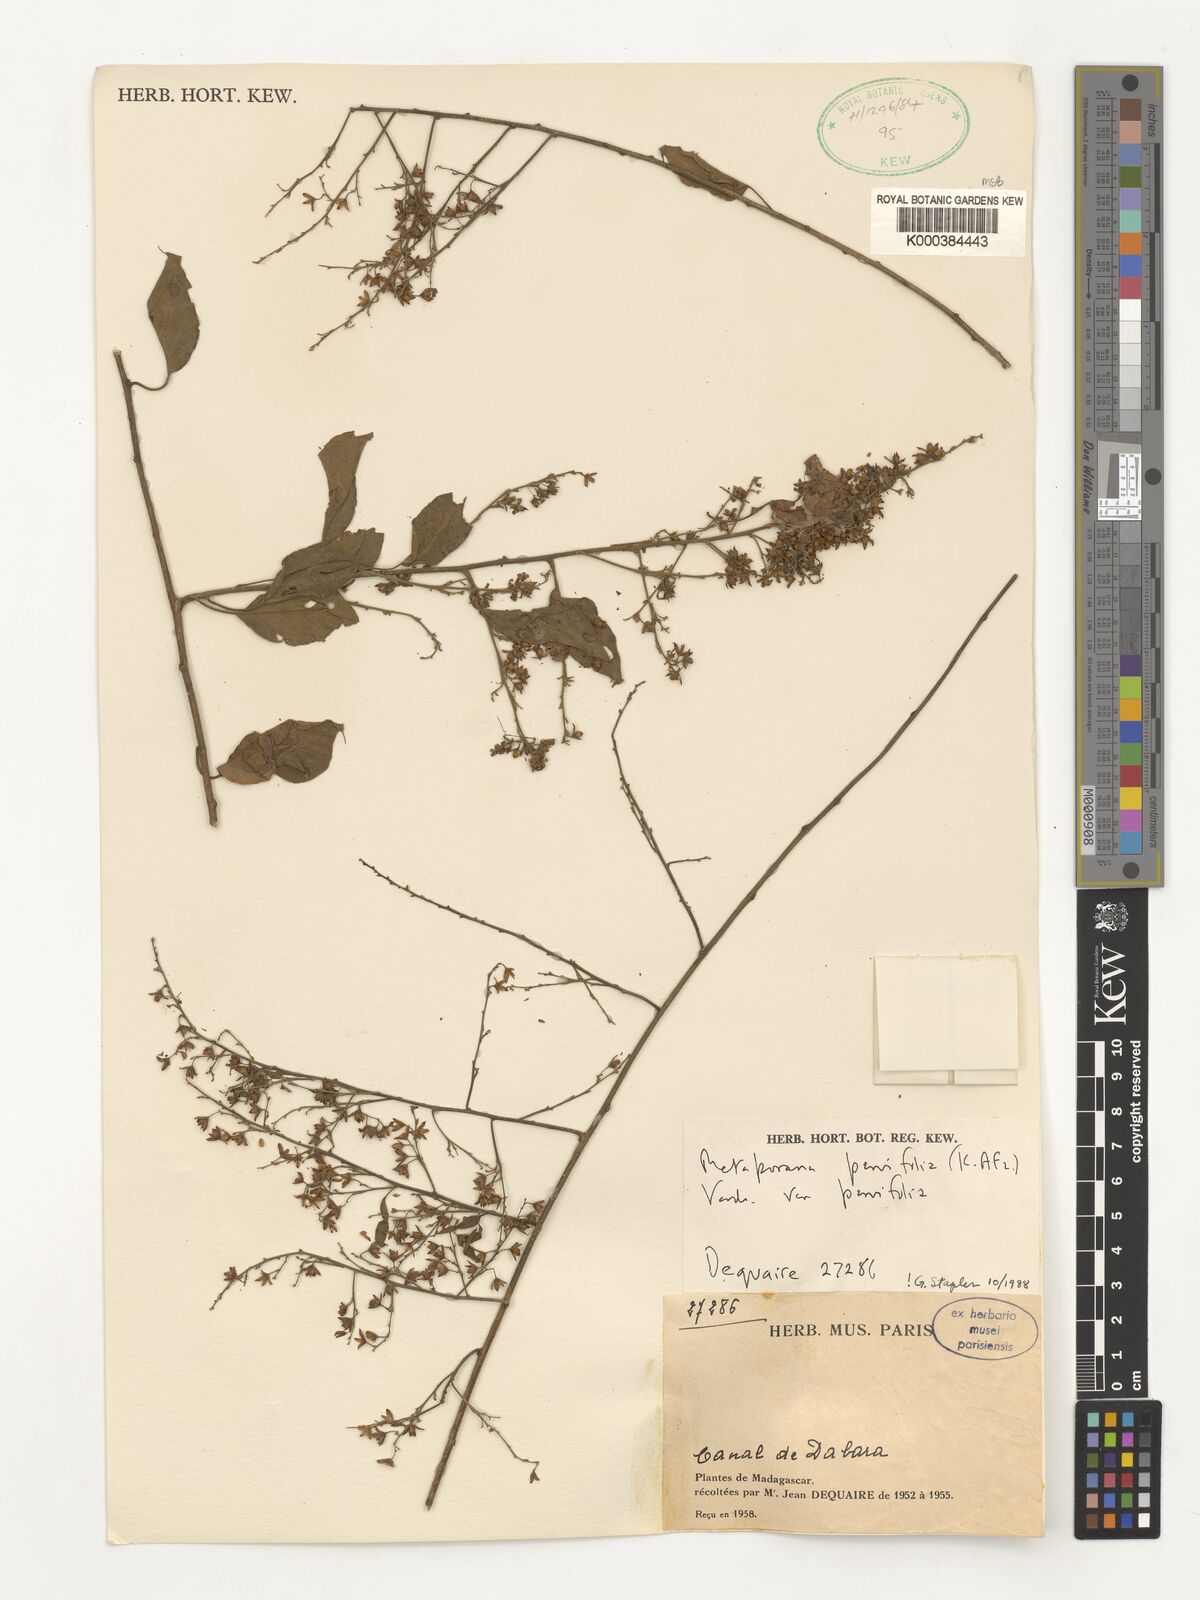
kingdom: Plantae
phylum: Tracheophyta
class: Magnoliopsida
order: Solanales
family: Convolvulaceae
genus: Metaporana
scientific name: Metaporana parvifolia
